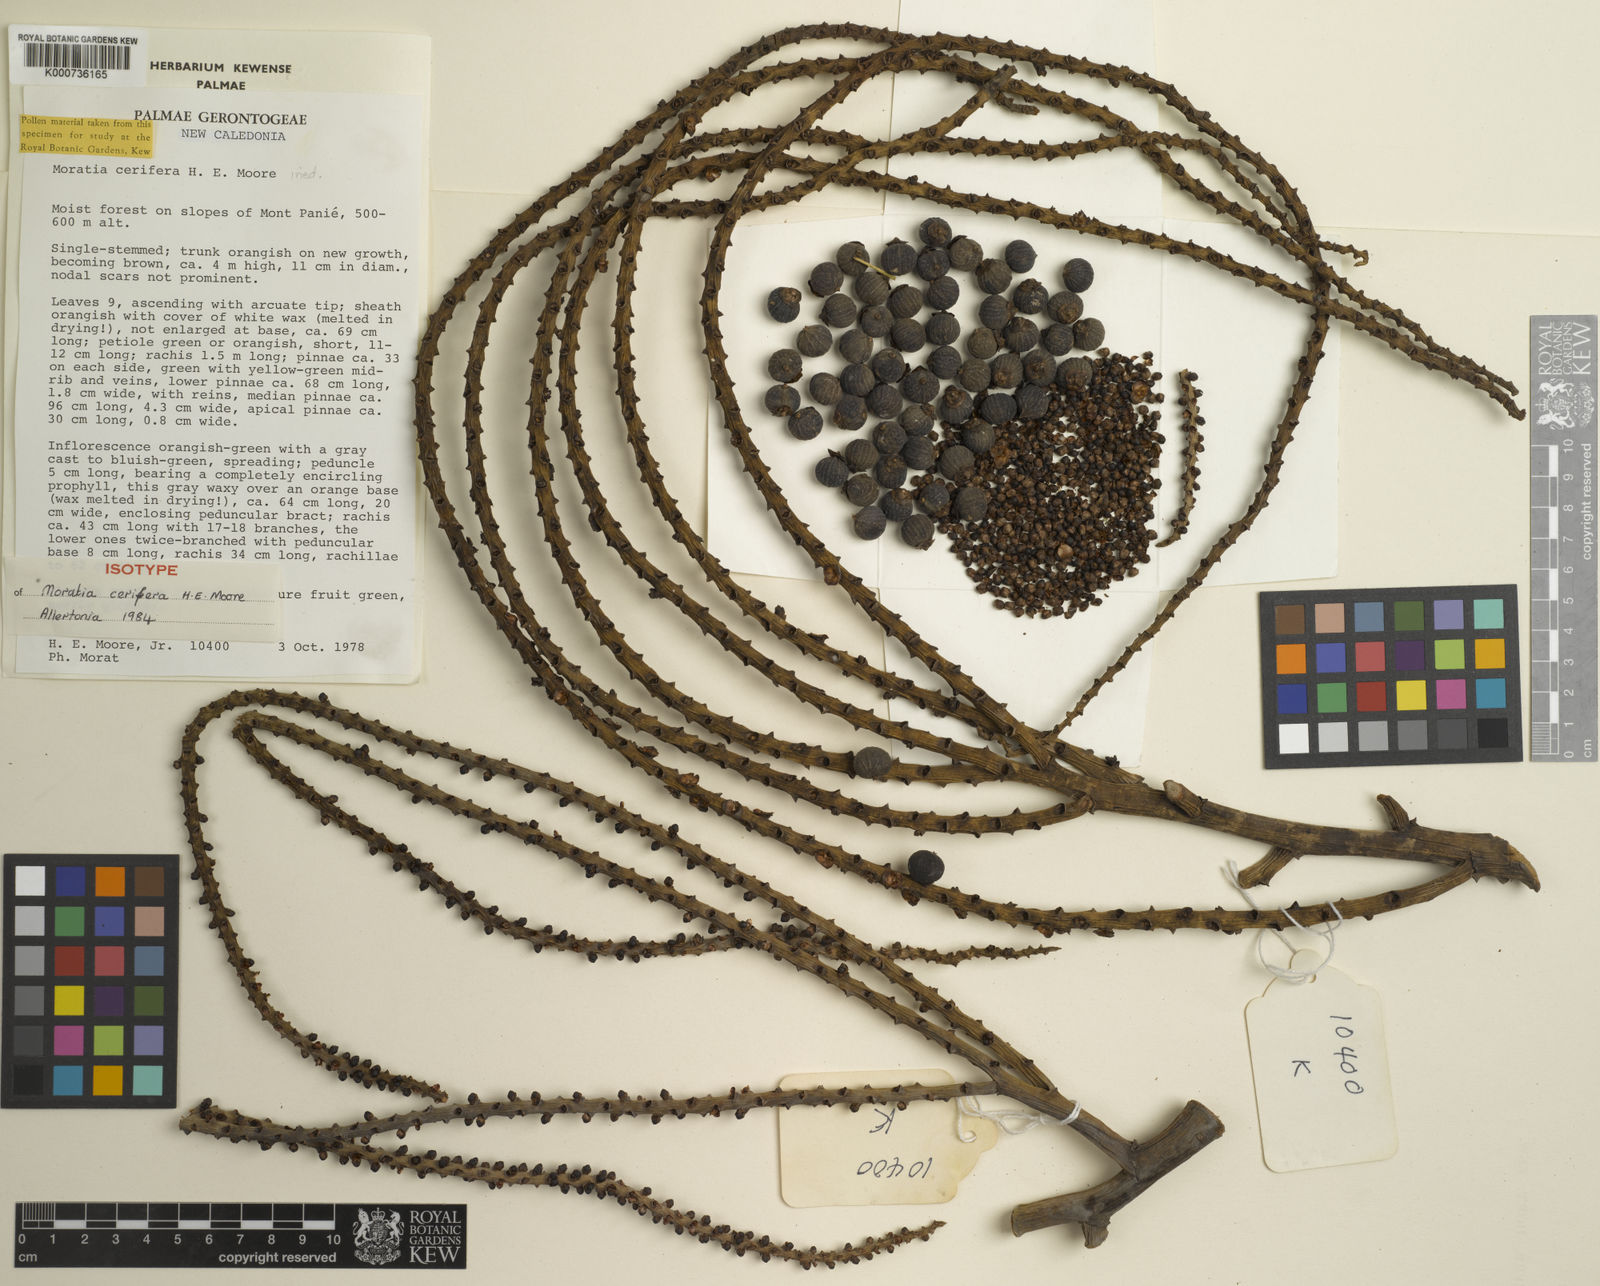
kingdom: Plantae
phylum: Tracheophyta
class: Liliopsida
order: Arecales
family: Arecaceae
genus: Cyphokentia
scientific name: Cyphokentia cerifera
